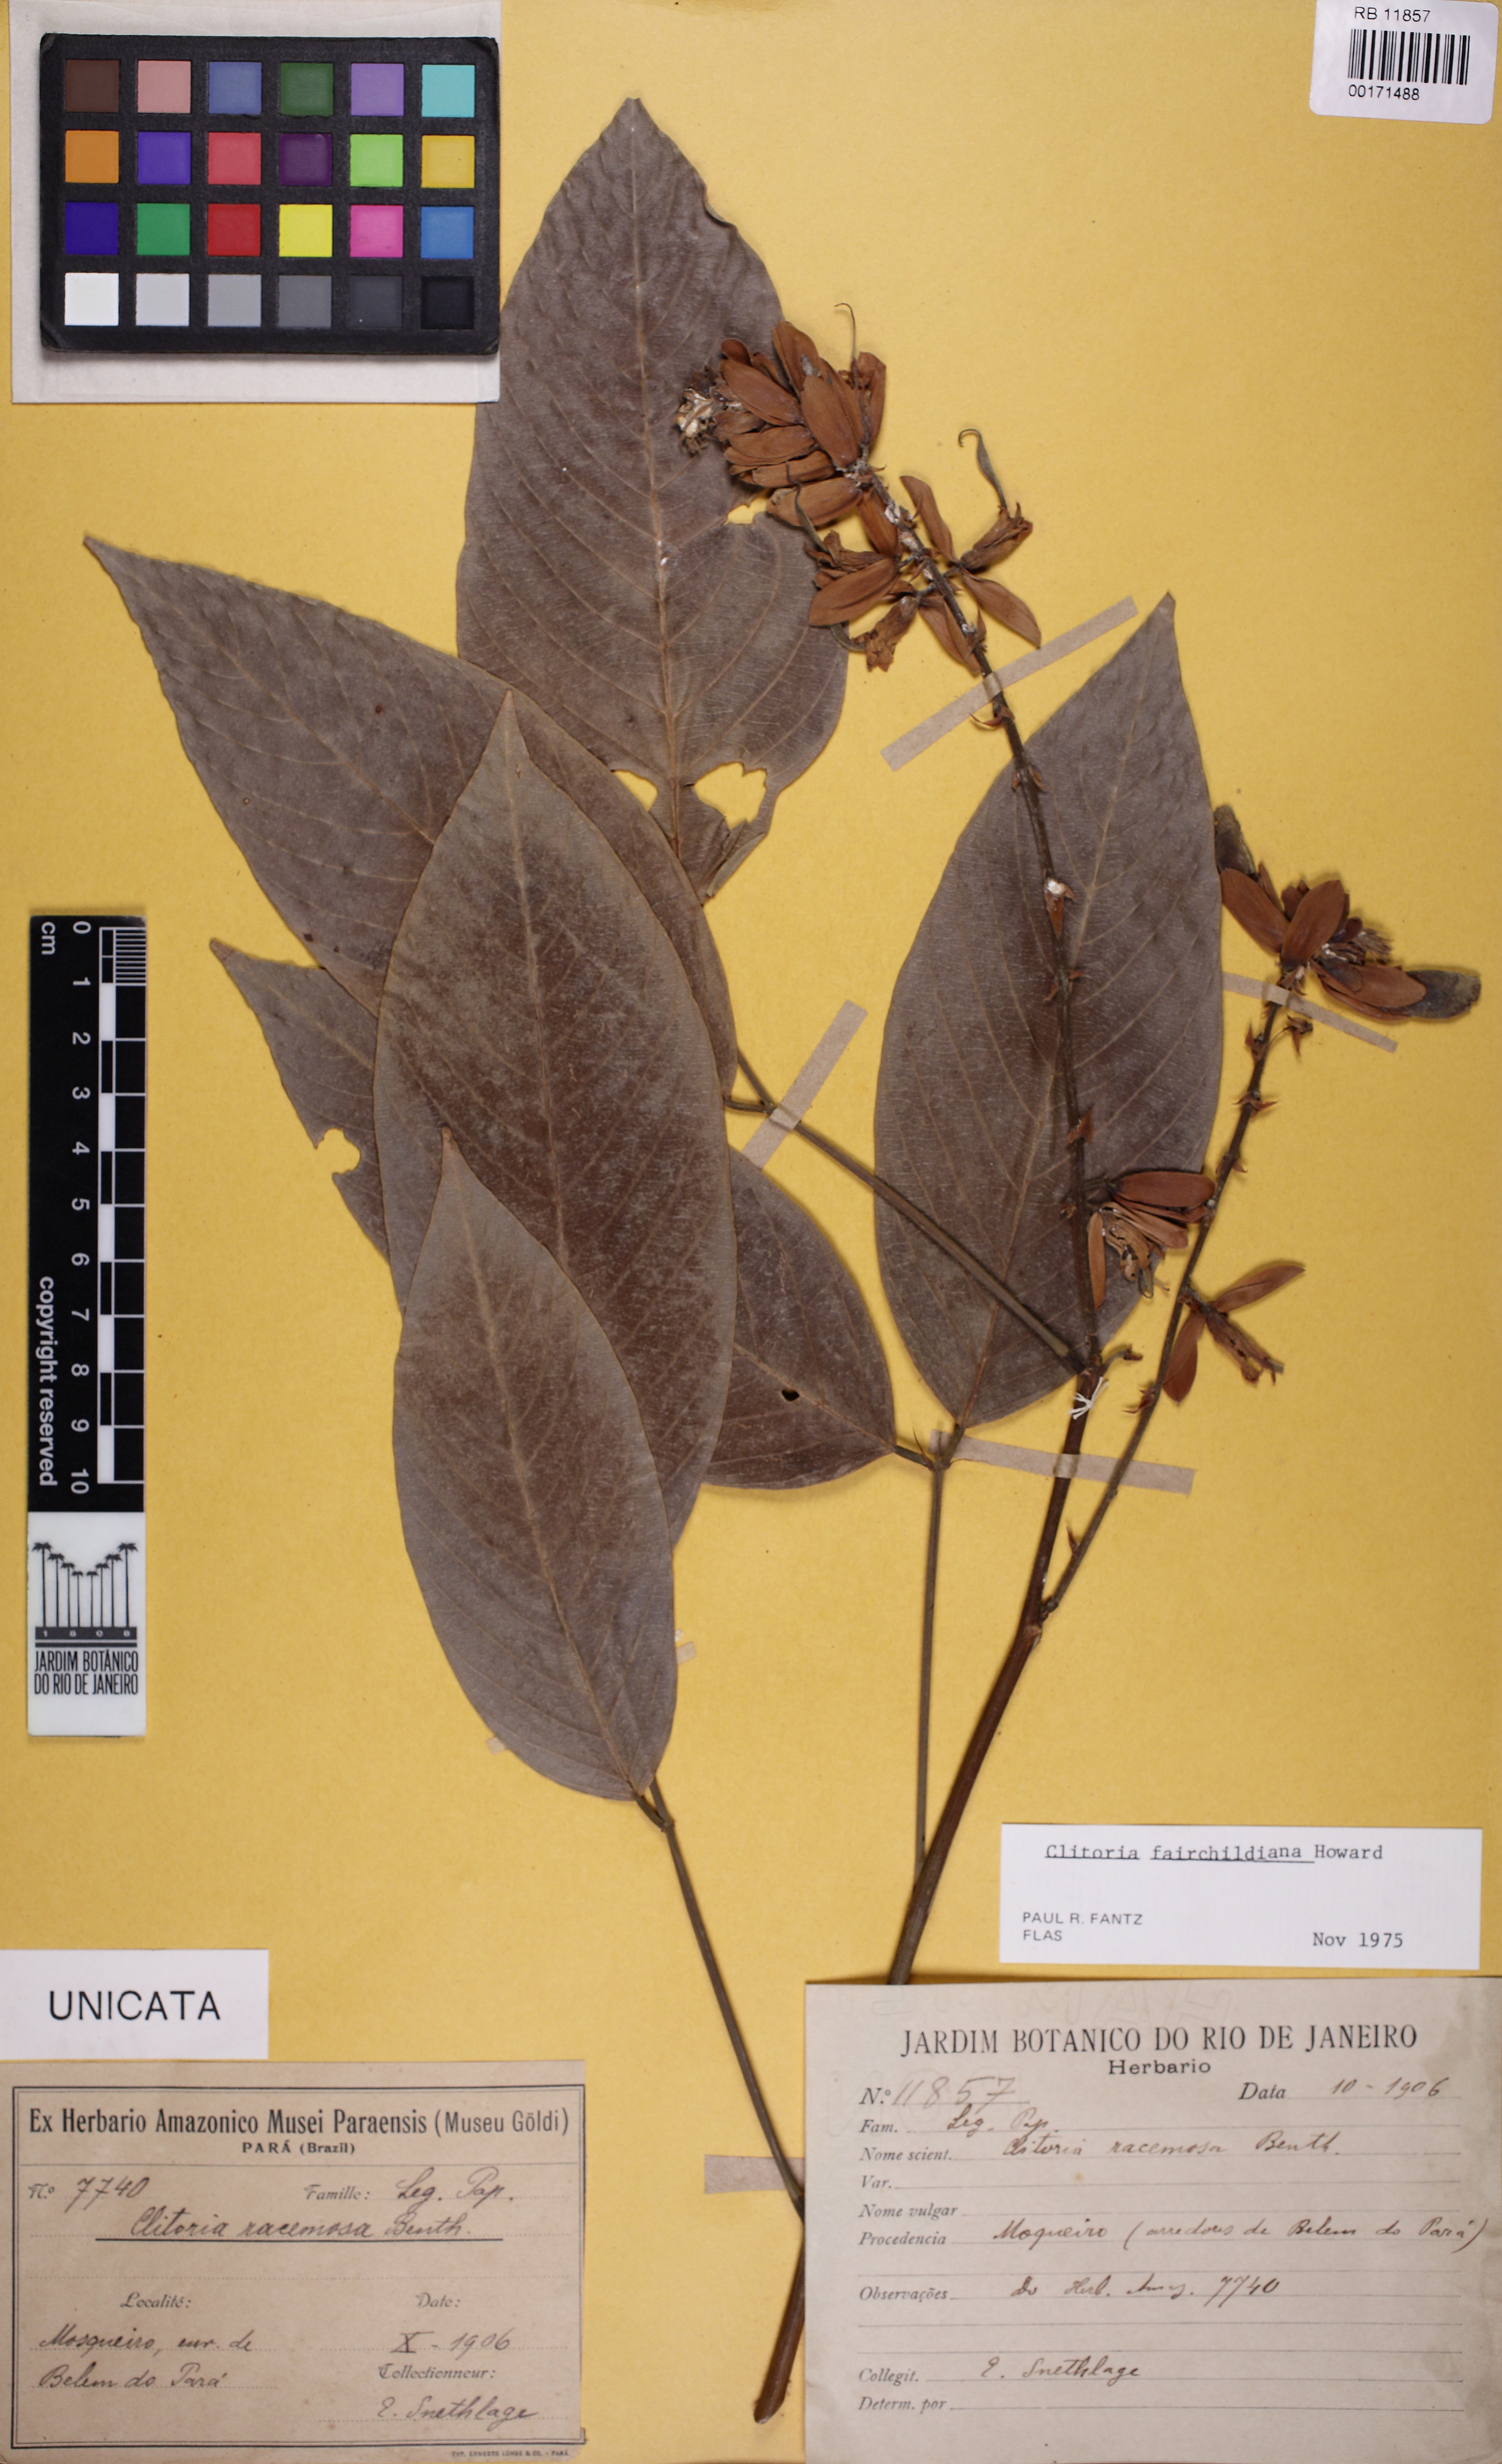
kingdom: Plantae
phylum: Tracheophyta
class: Magnoliopsida
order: Fabales
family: Fabaceae
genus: Clitoria
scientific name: Clitoria fairchildiana
